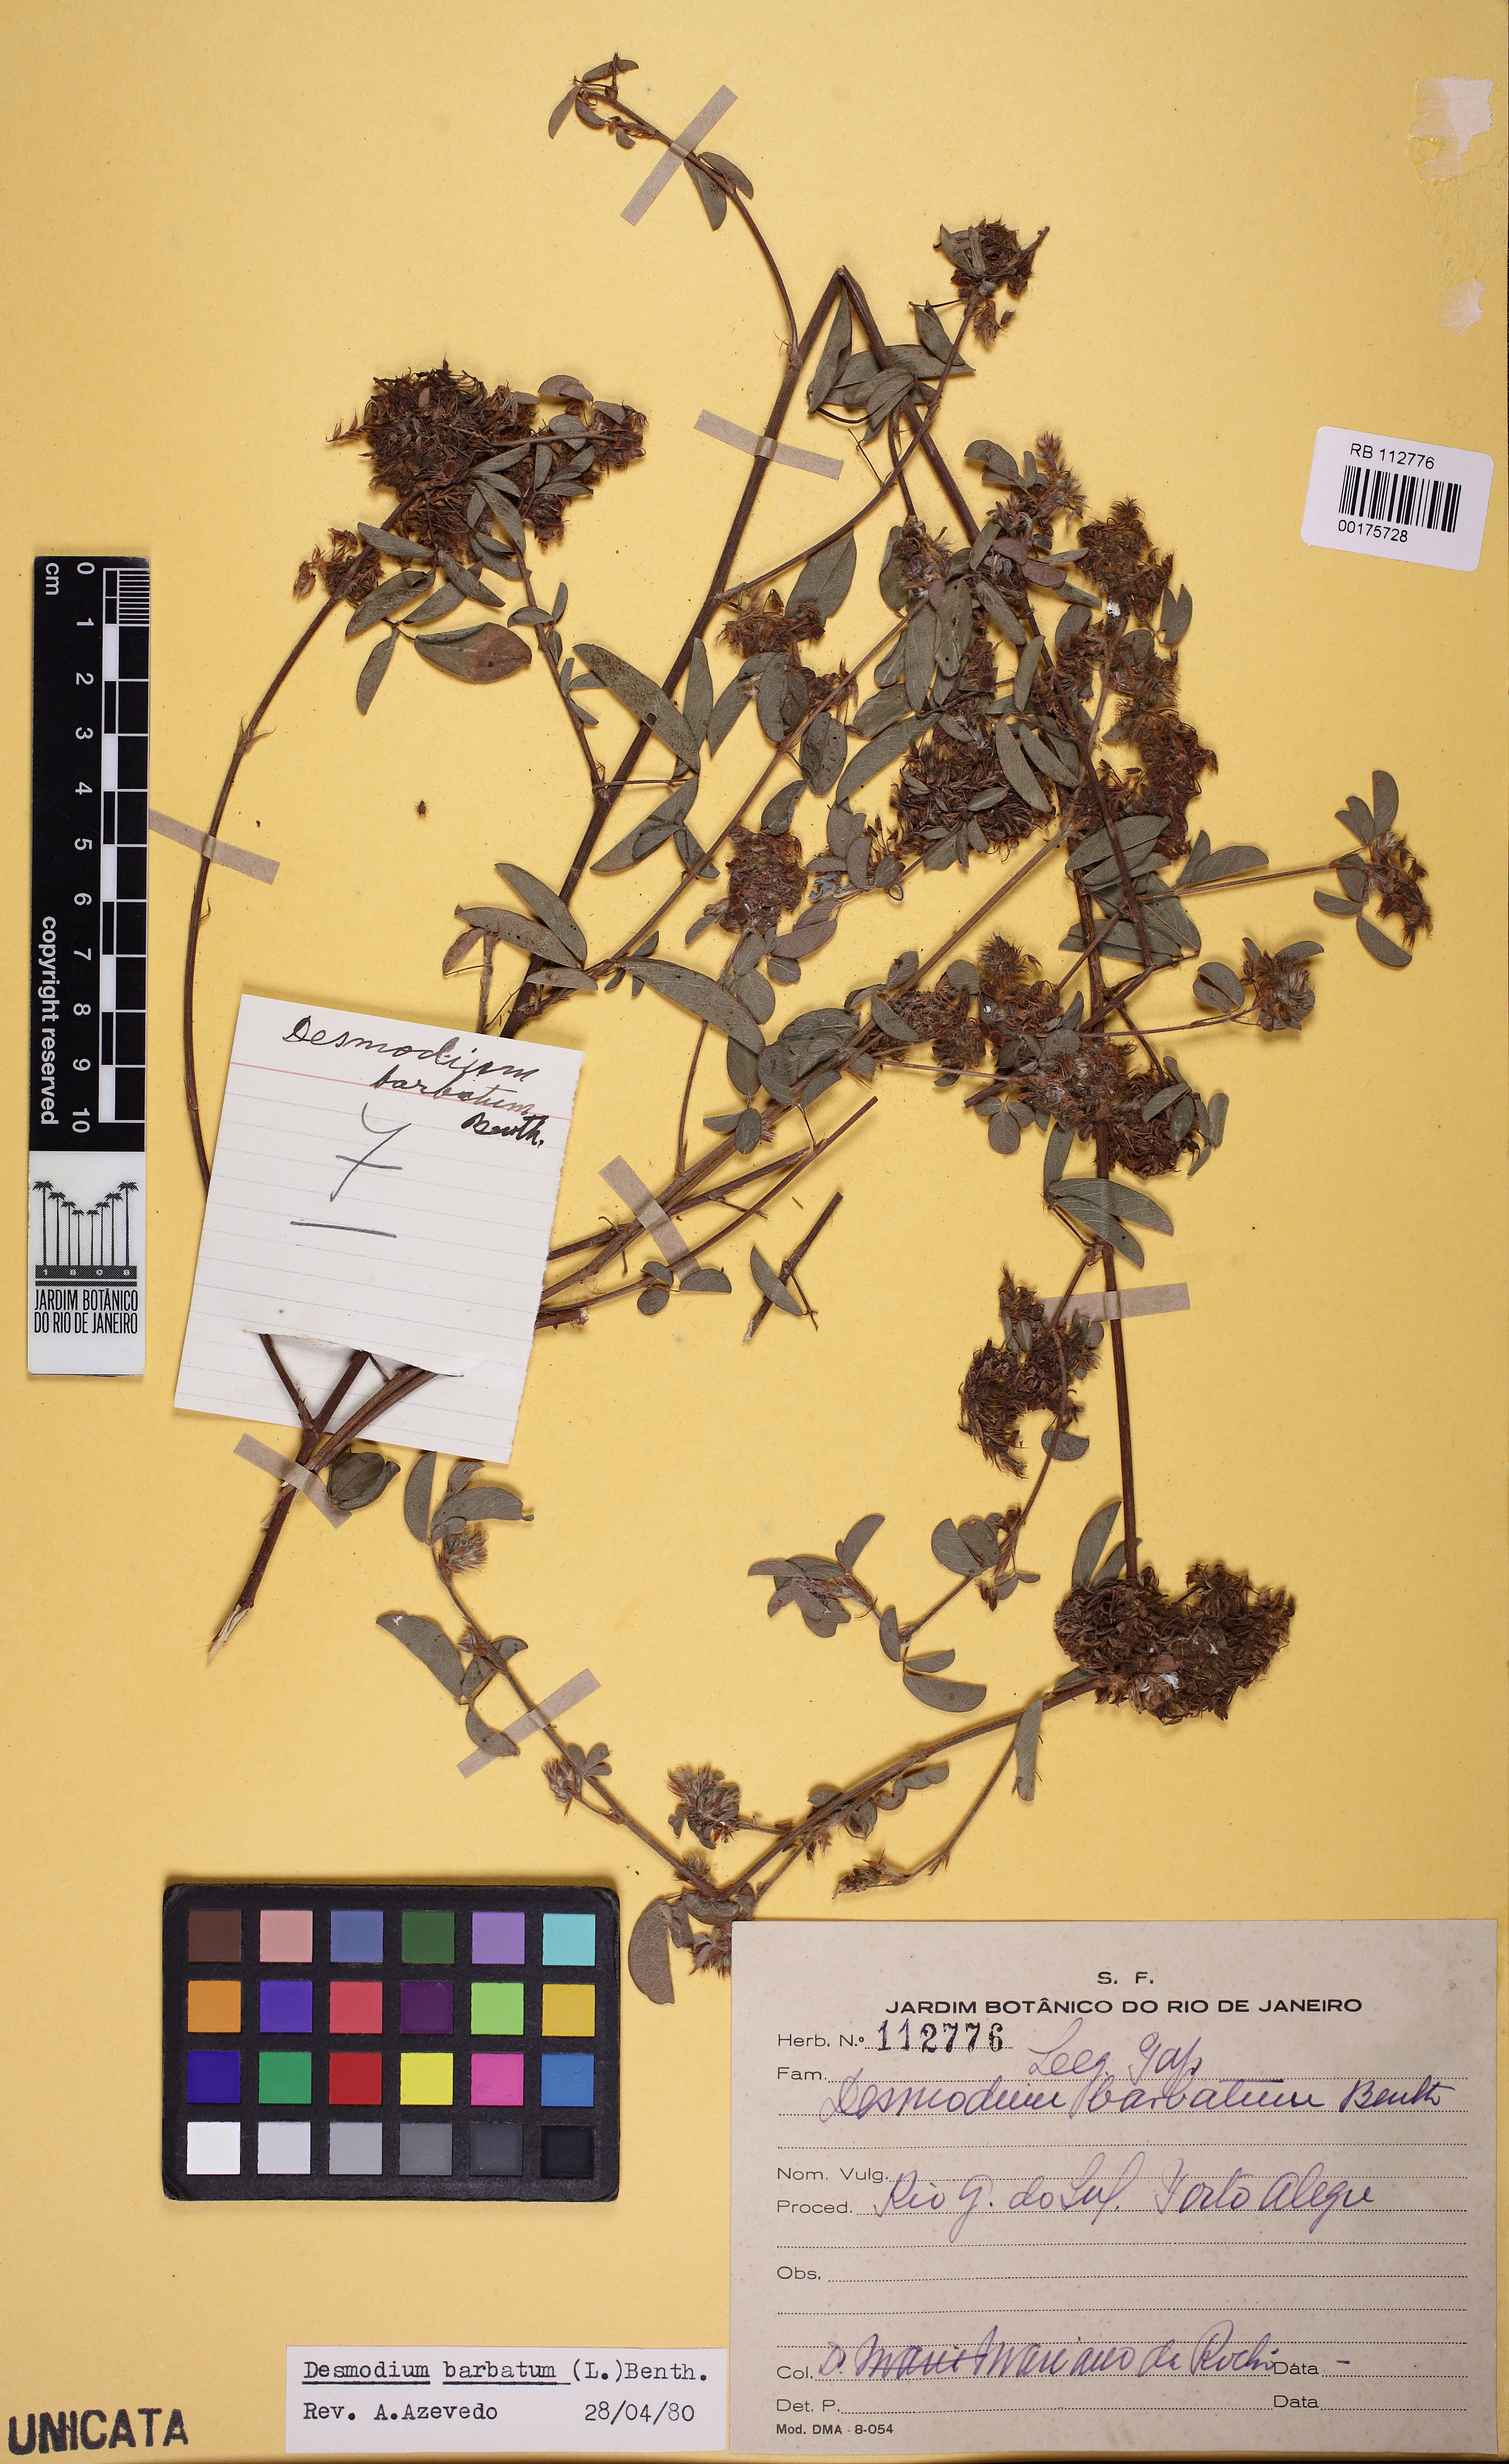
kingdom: Plantae
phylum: Tracheophyta
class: Magnoliopsida
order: Fabales
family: Fabaceae
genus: Grona
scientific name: Grona barbata
